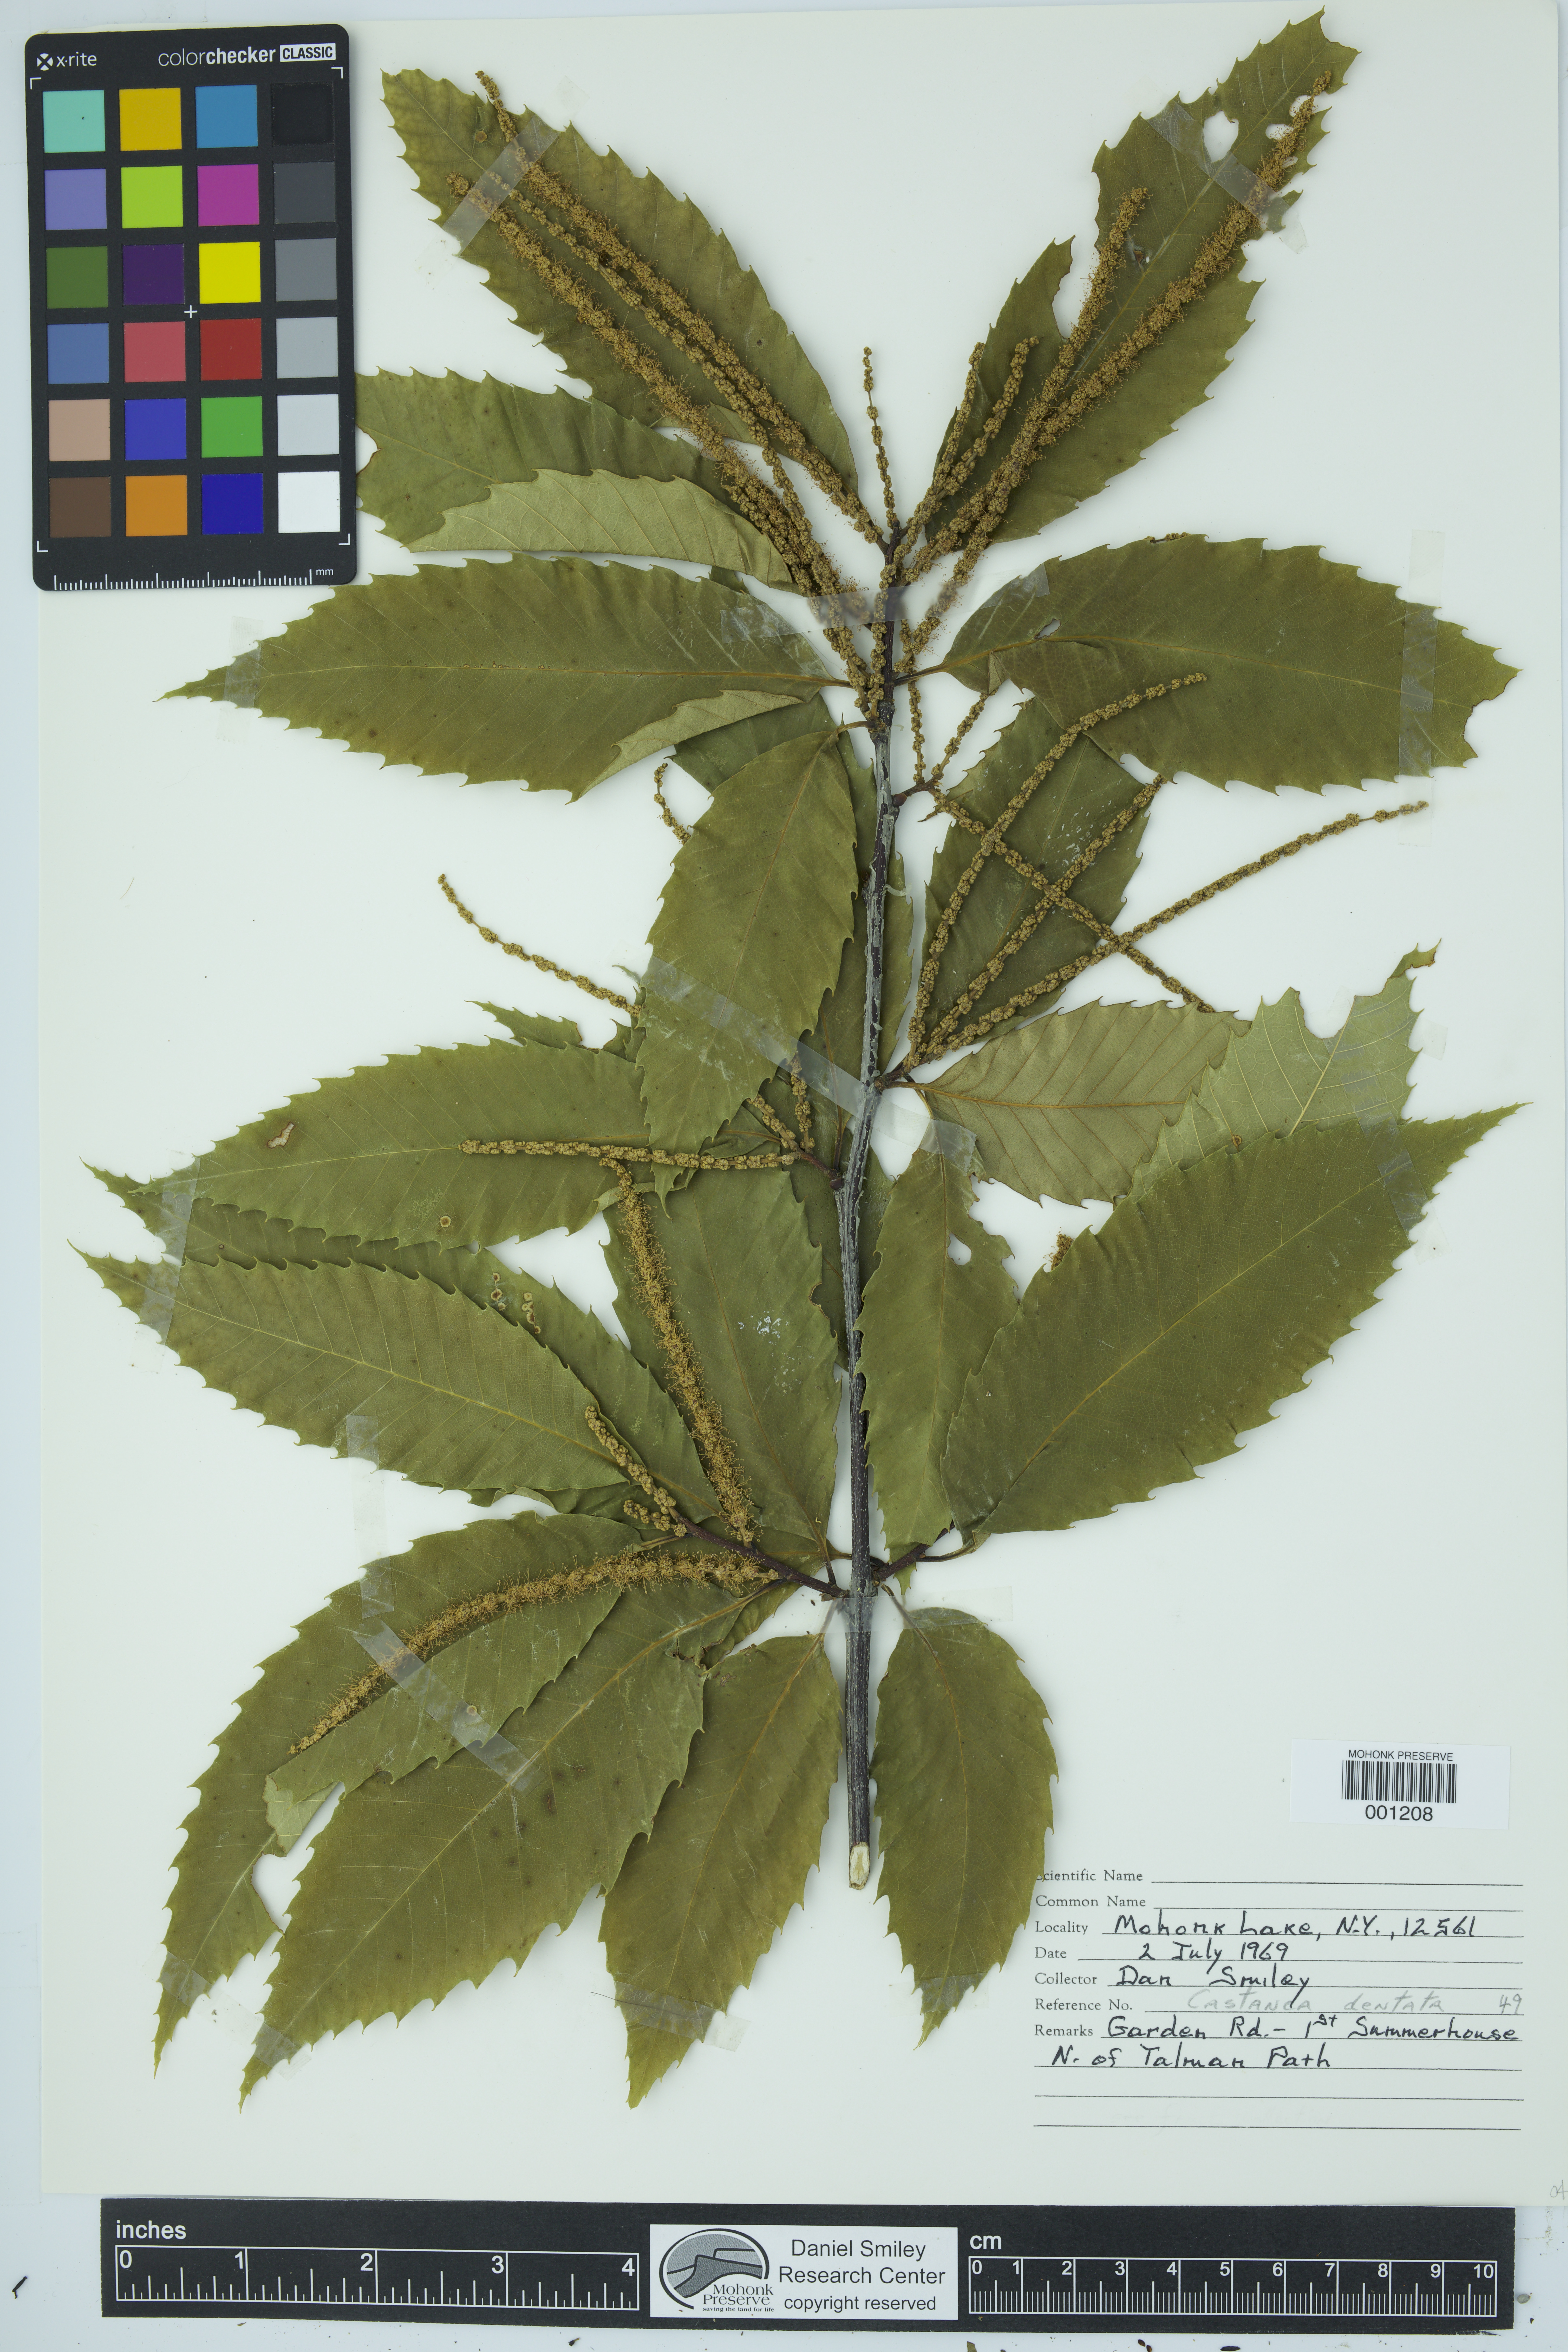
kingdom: Plantae
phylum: Tracheophyta
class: Magnoliopsida
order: Fagales
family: Fagaceae
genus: Castanea
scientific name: Castanea dentata
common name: American chestnut
